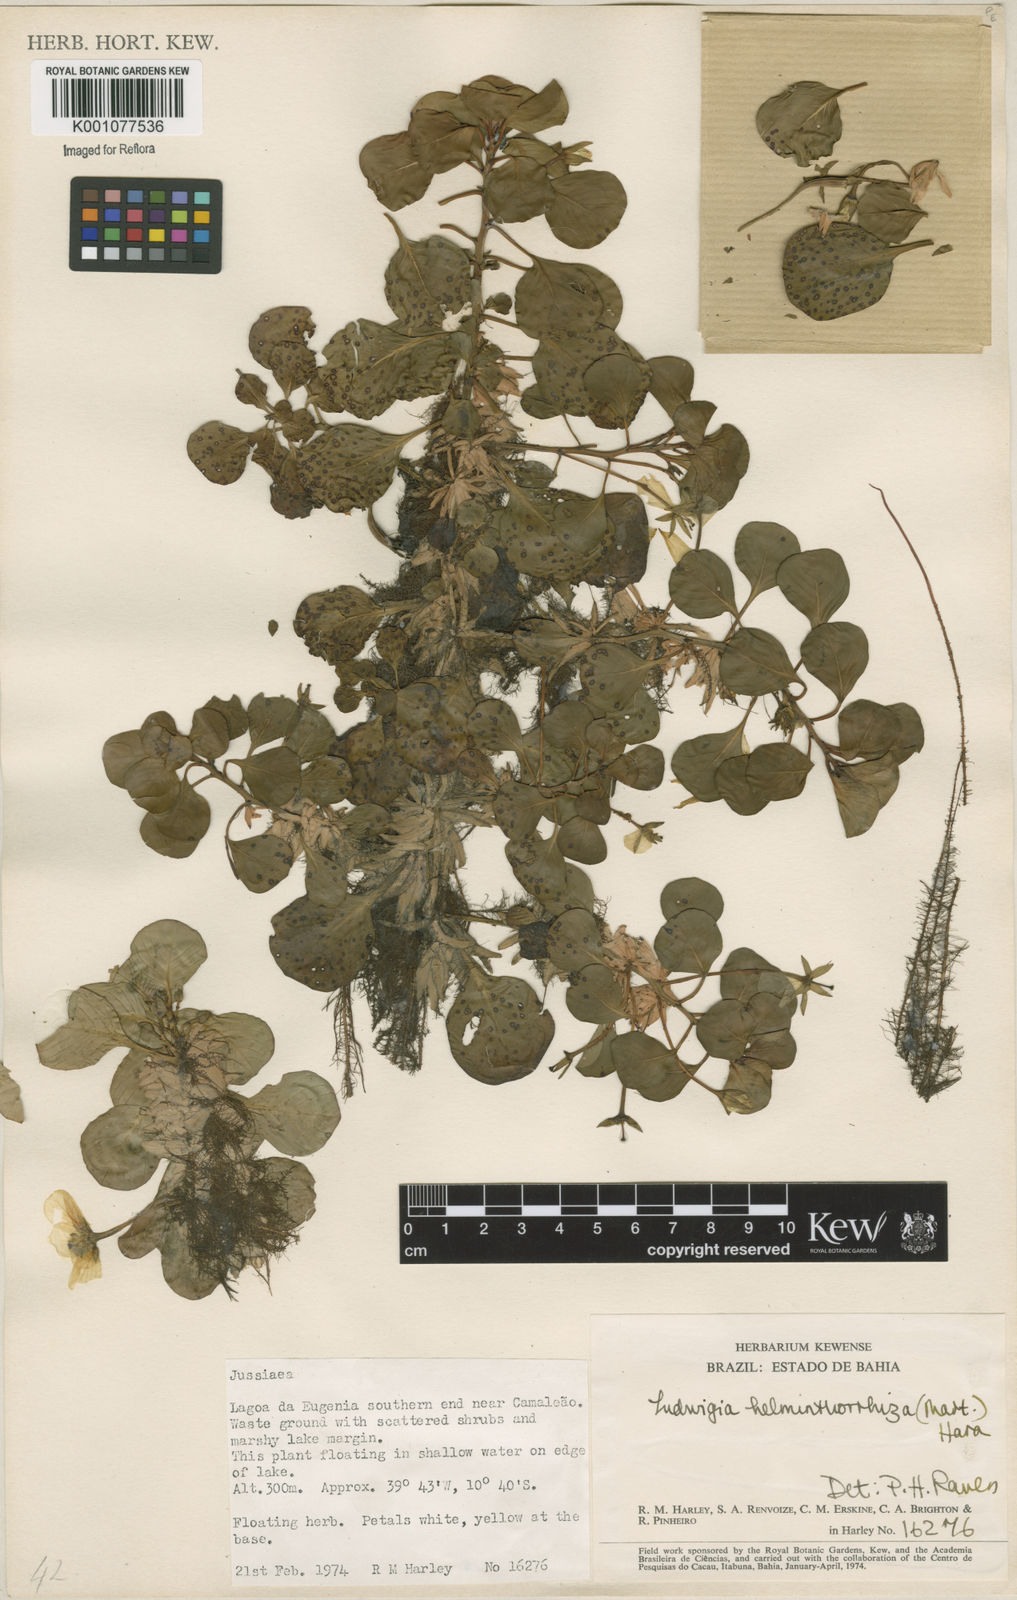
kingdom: Plantae
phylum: Tracheophyta
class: Magnoliopsida
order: Myrtales
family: Onagraceae
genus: Ludwigia
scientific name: Ludwigia helminthorrhiza
